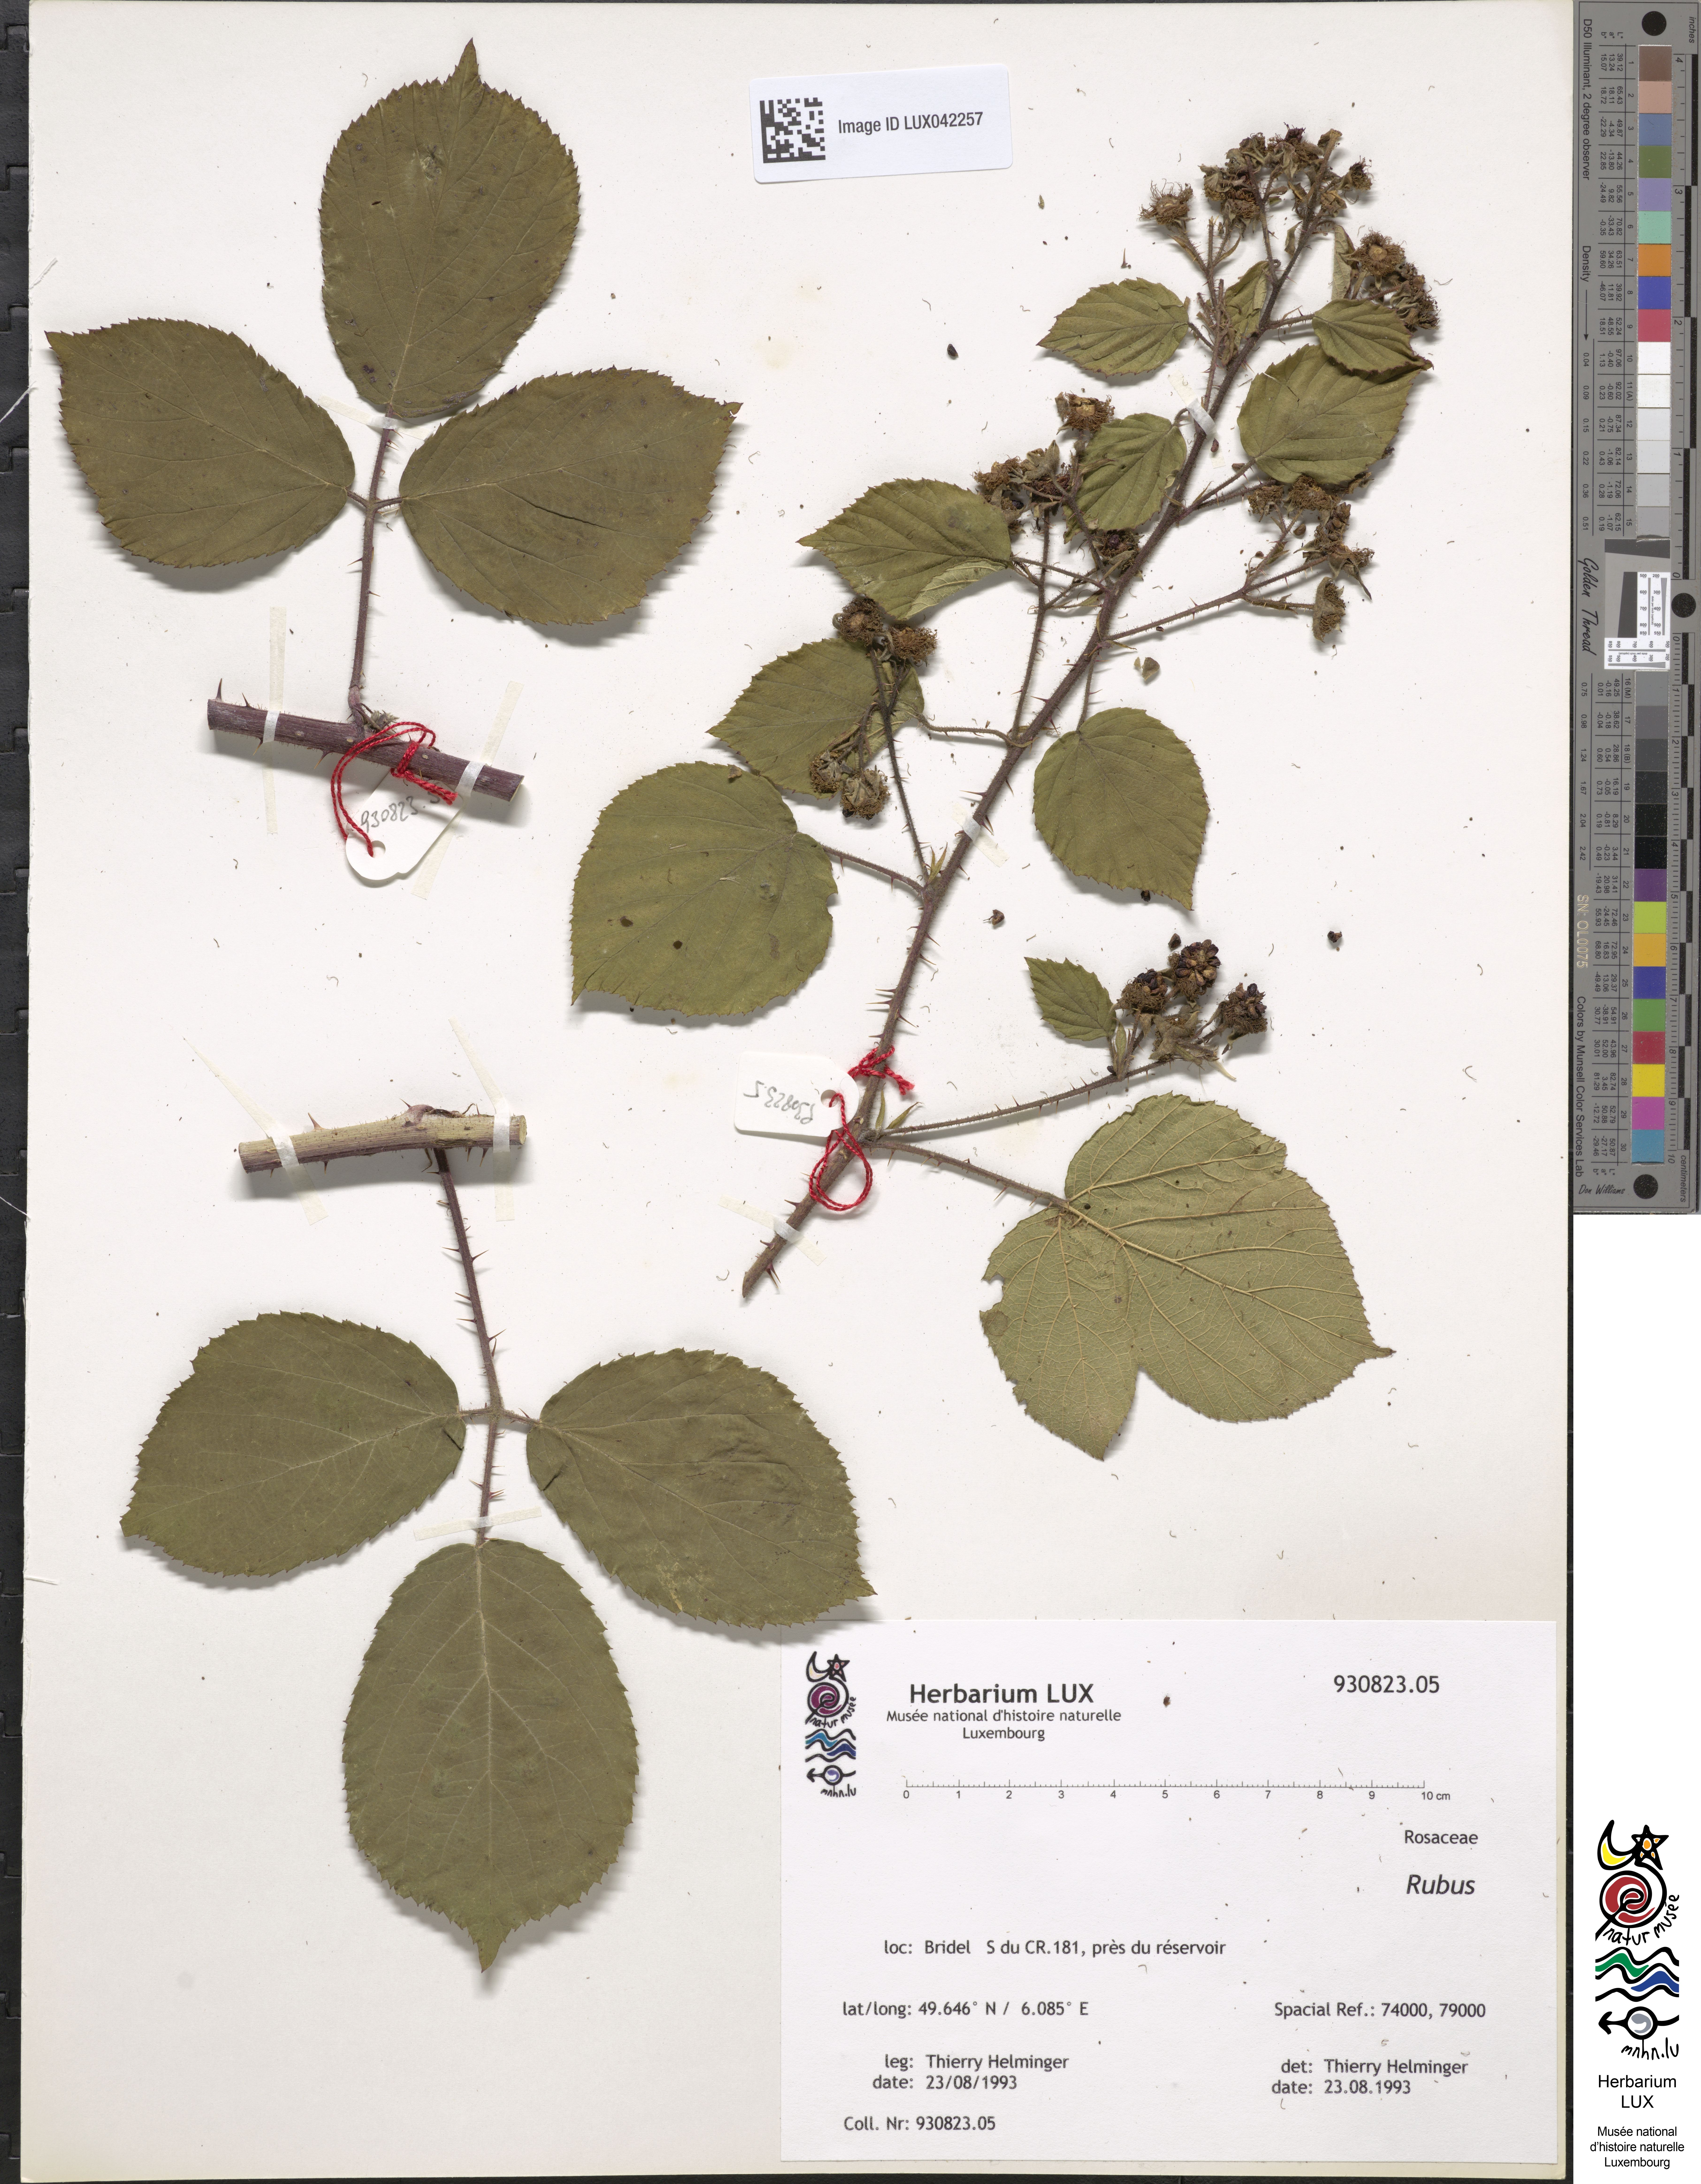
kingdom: Plantae
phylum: Tracheophyta
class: Magnoliopsida
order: Rosales
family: Rosaceae
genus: Rubus
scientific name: Rubus
